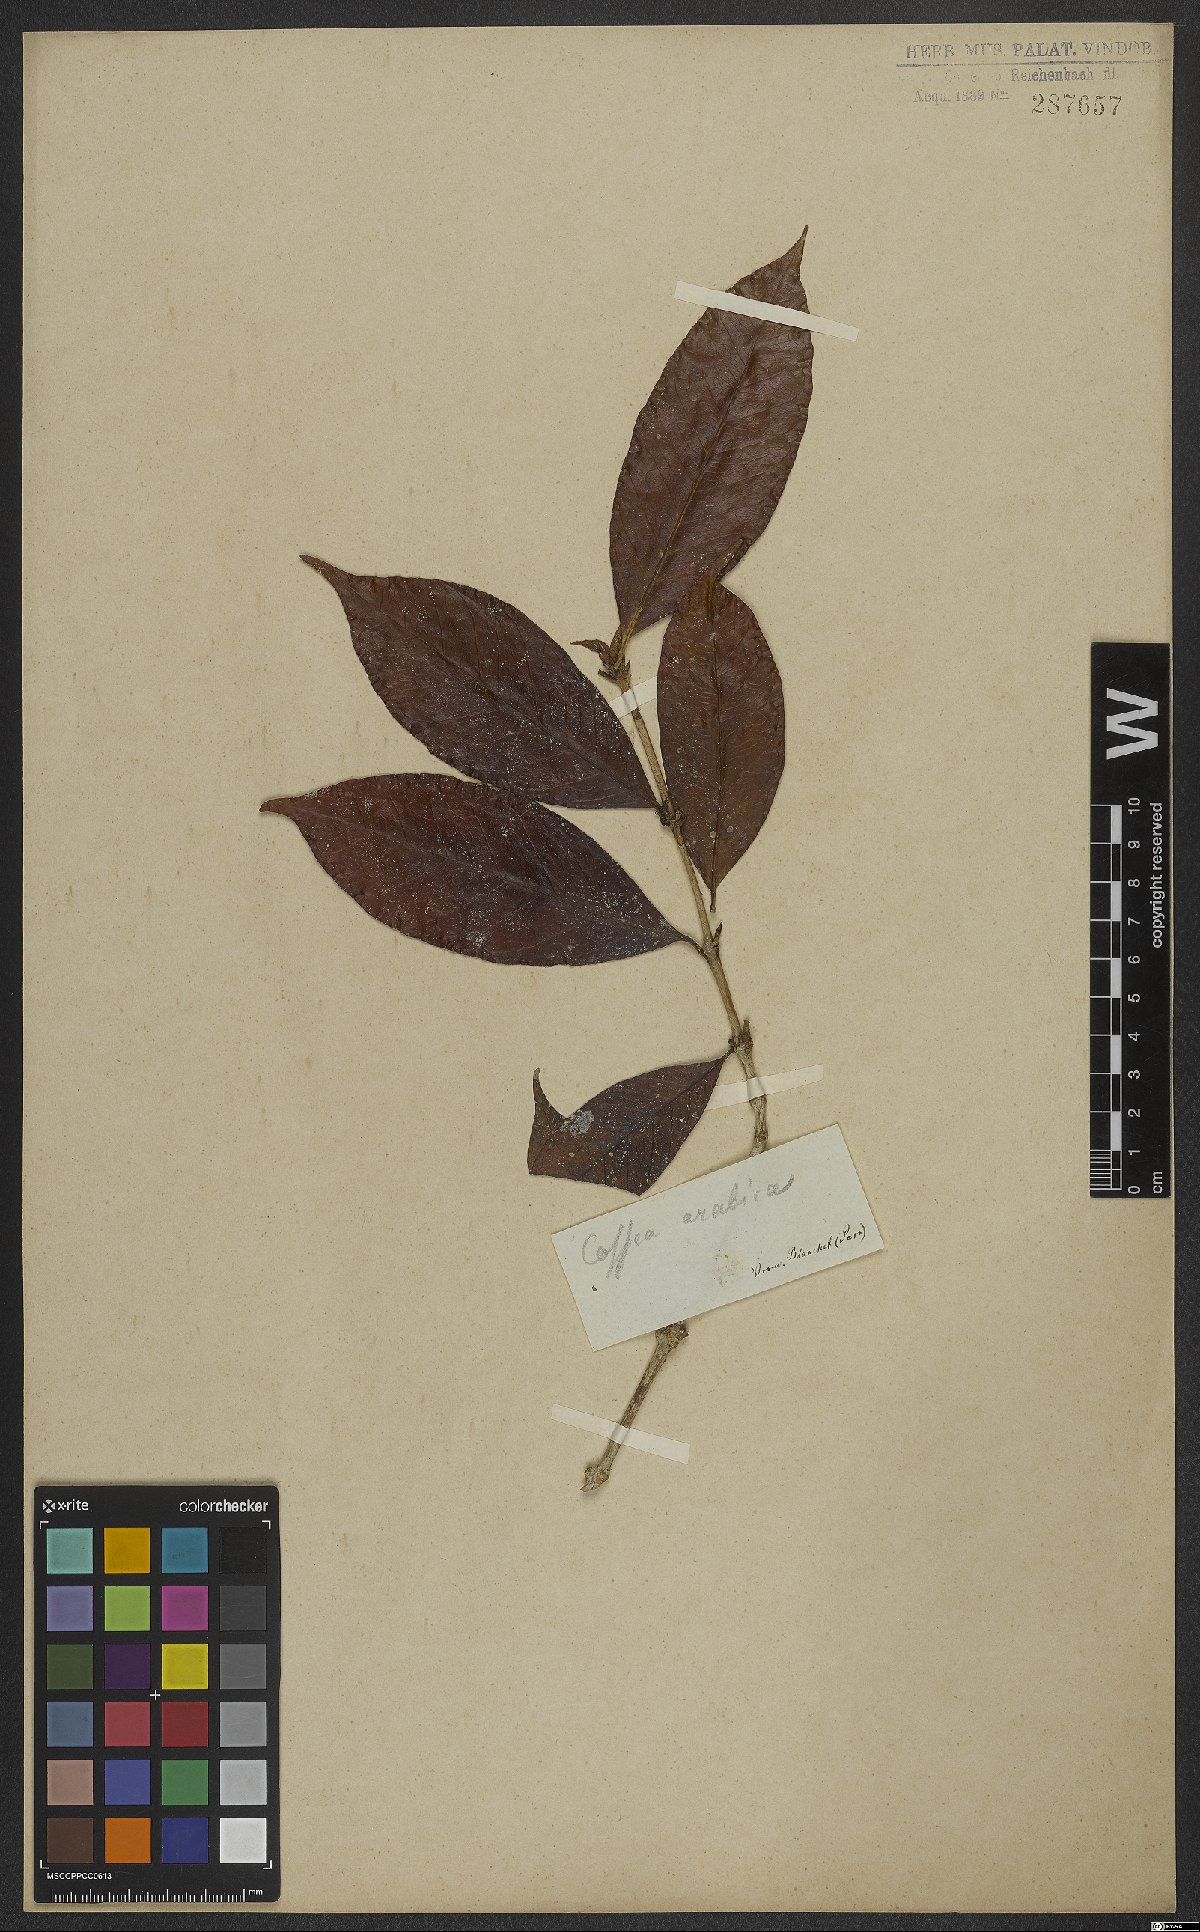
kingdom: Plantae
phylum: Tracheophyta
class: Magnoliopsida
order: Gentianales
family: Rubiaceae
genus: Coffea
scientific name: Coffea arabica
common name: Coffee
